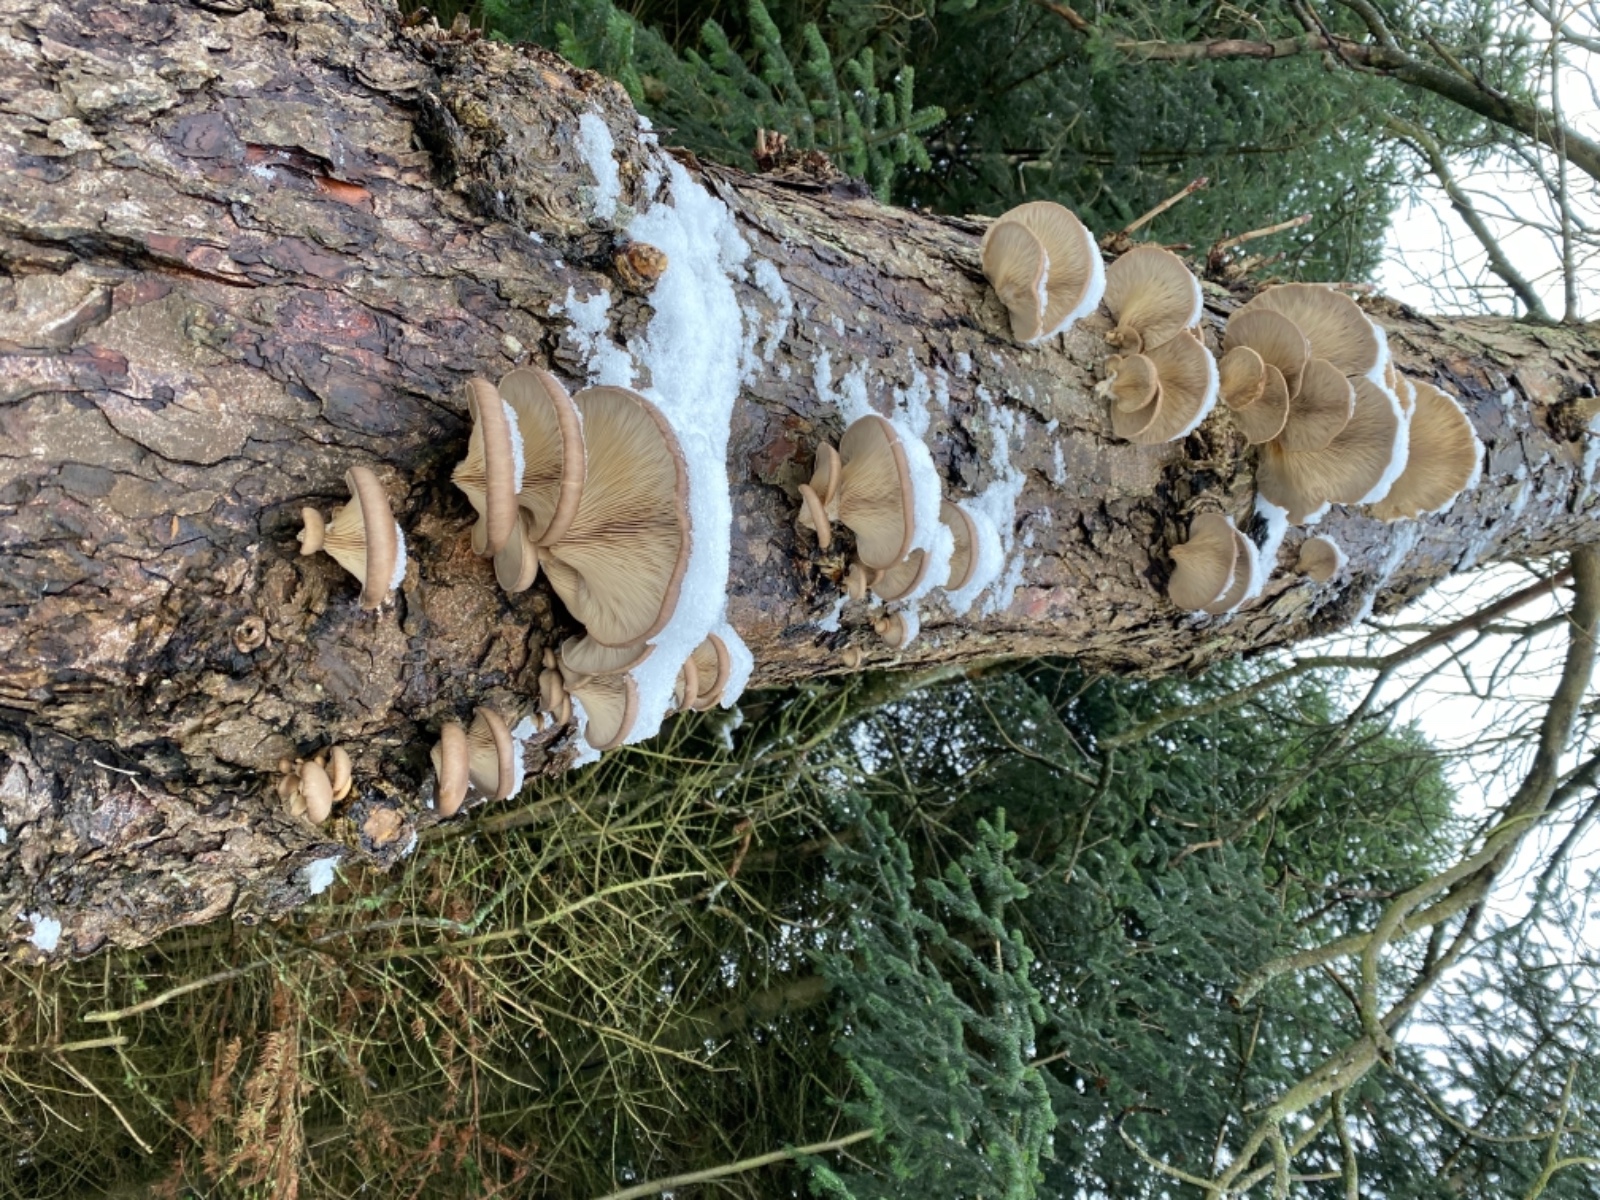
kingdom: Fungi
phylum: Basidiomycota
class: Agaricomycetes
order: Agaricales
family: Pleurotaceae
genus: Pleurotus
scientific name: Pleurotus ostreatus
